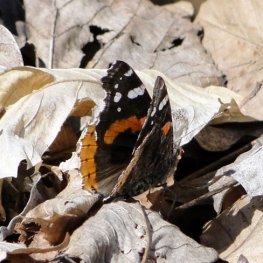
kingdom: Animalia
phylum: Arthropoda
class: Insecta
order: Lepidoptera
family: Nymphalidae
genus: Vanessa
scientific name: Vanessa atalanta
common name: Red Admiral
